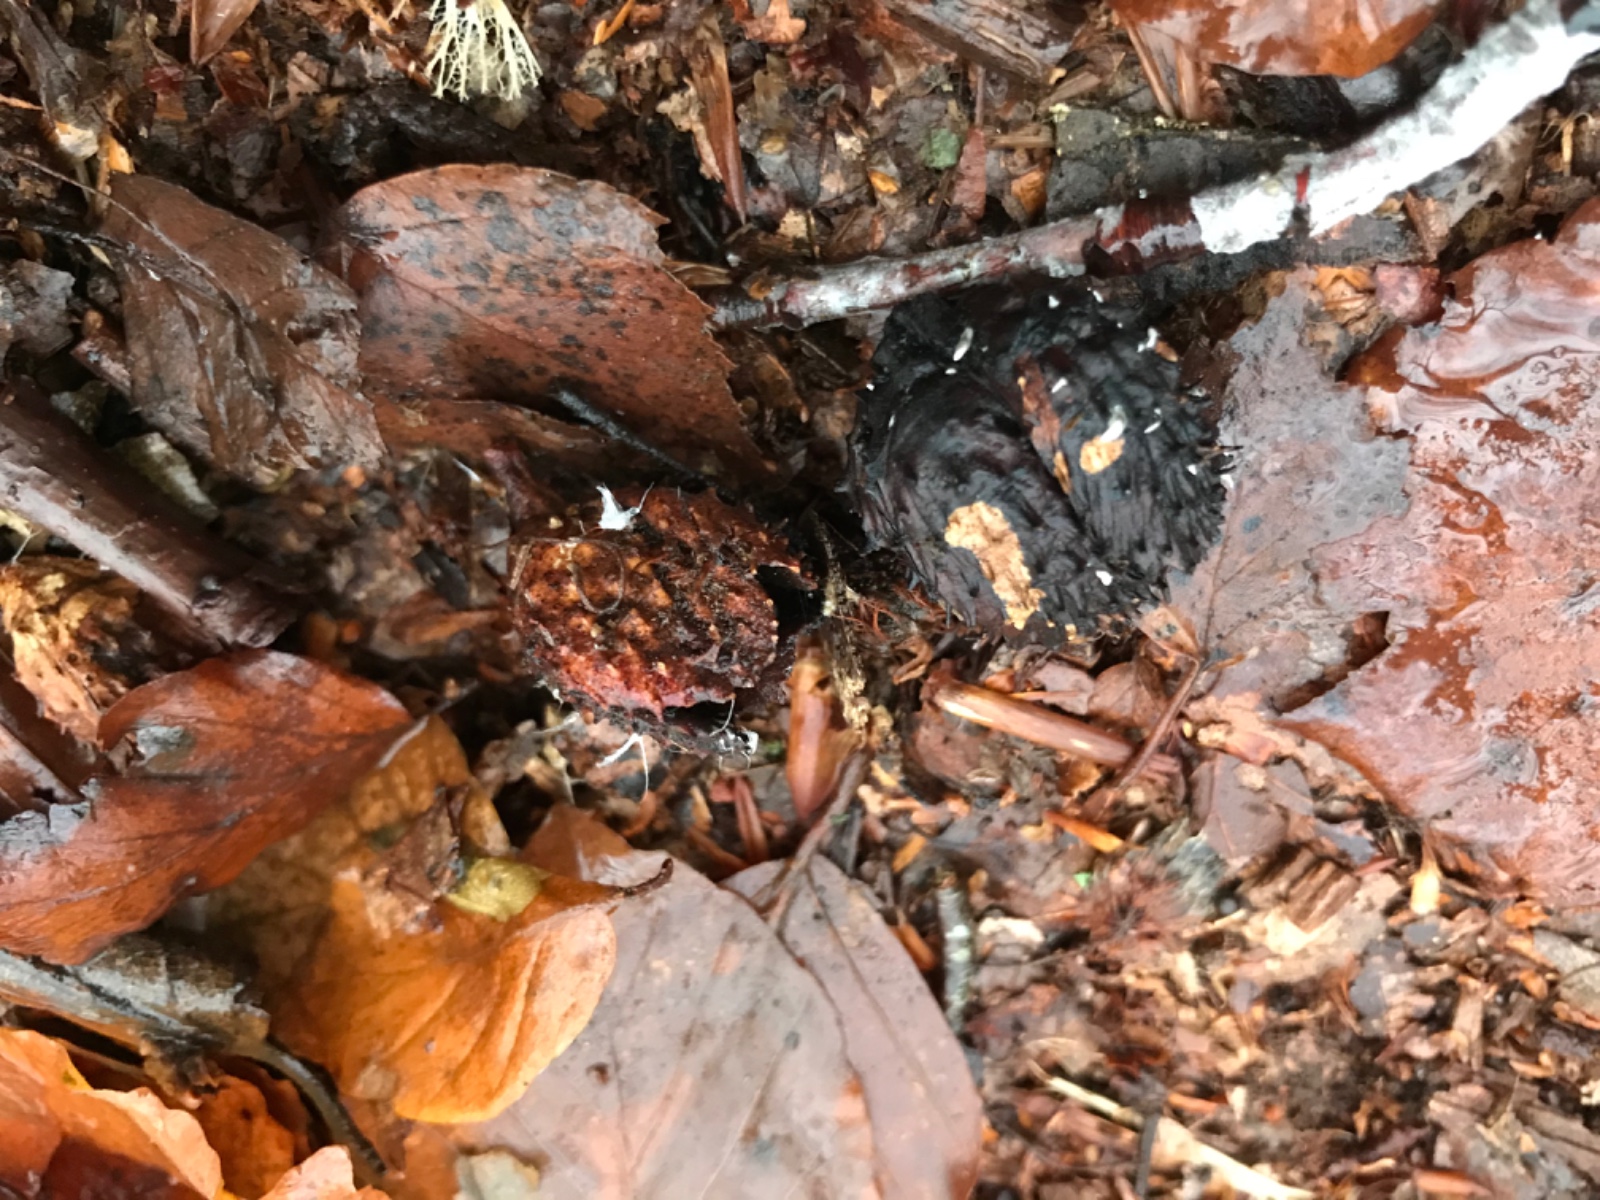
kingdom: Fungi
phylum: Ascomycota
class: Sordariomycetes
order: Xylariales
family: Xylariaceae
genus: Xylaria
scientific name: Xylaria carpophila
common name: bogskål-stødsvamp
